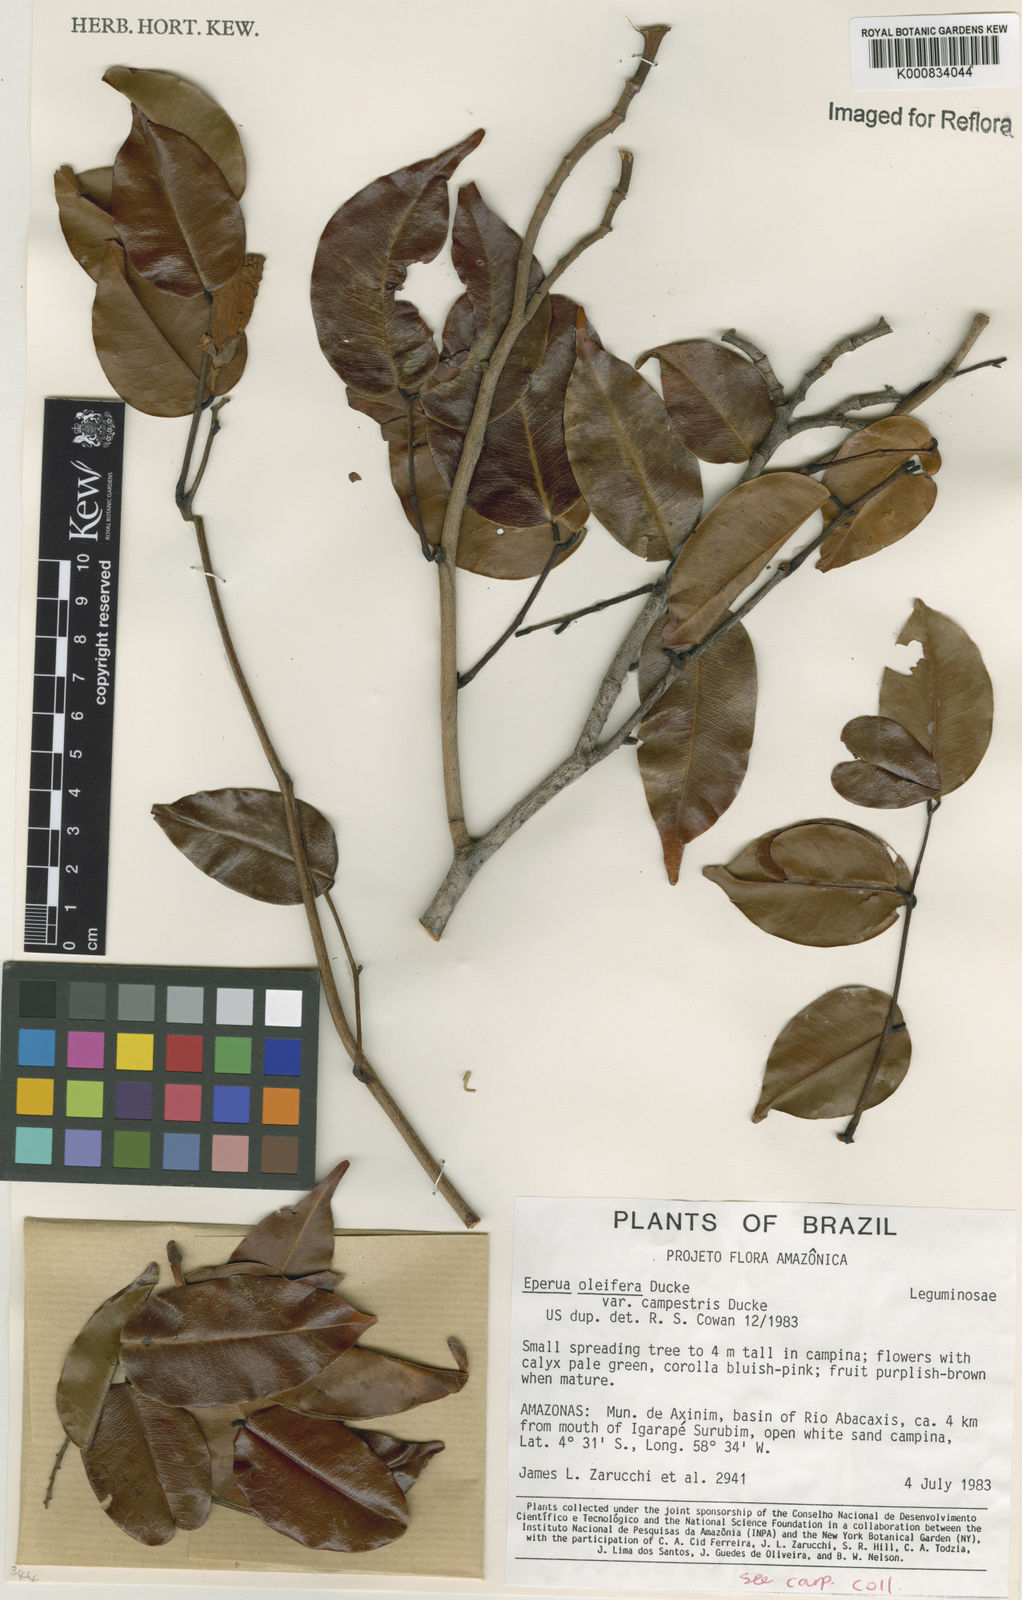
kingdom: Plantae
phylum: Tracheophyta
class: Magnoliopsida
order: Fabales
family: Fabaceae
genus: Eperua
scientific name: Eperua oleifera
